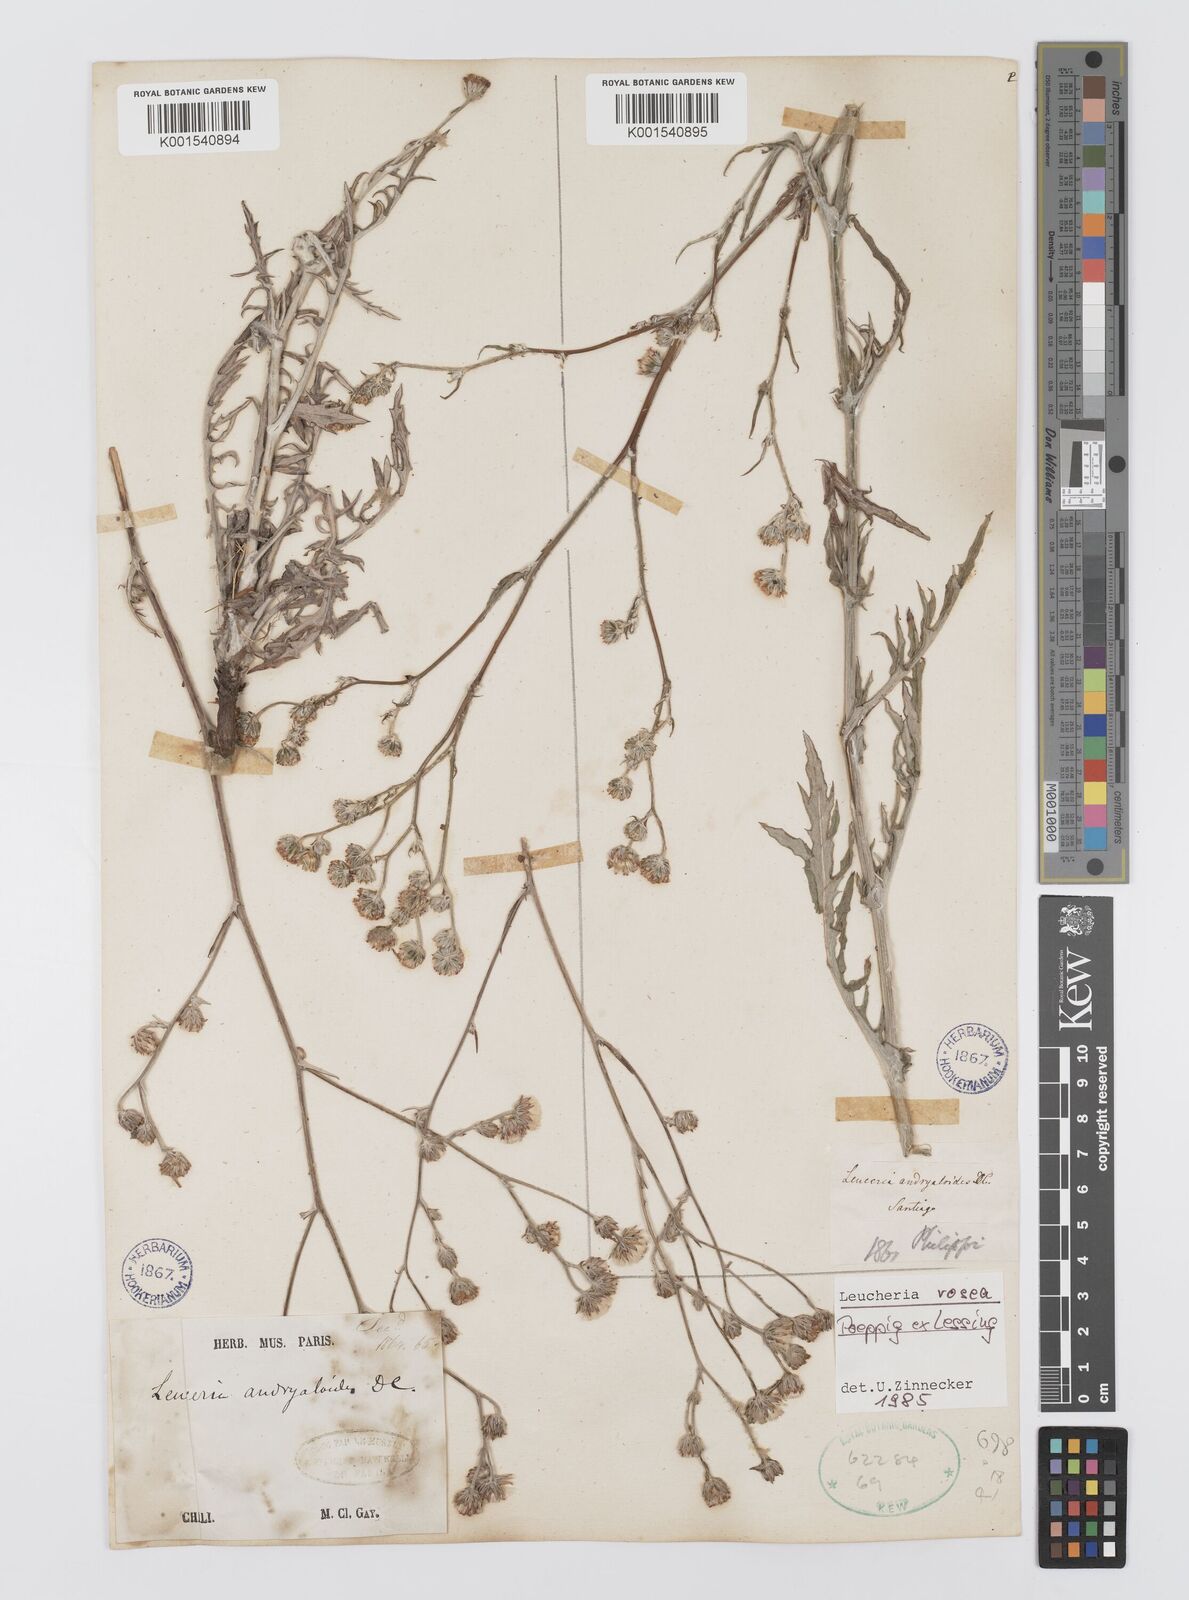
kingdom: Plantae
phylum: Tracheophyta
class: Magnoliopsida
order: Asterales
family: Asteraceae
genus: Leucheria
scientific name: Leucheria rosea
